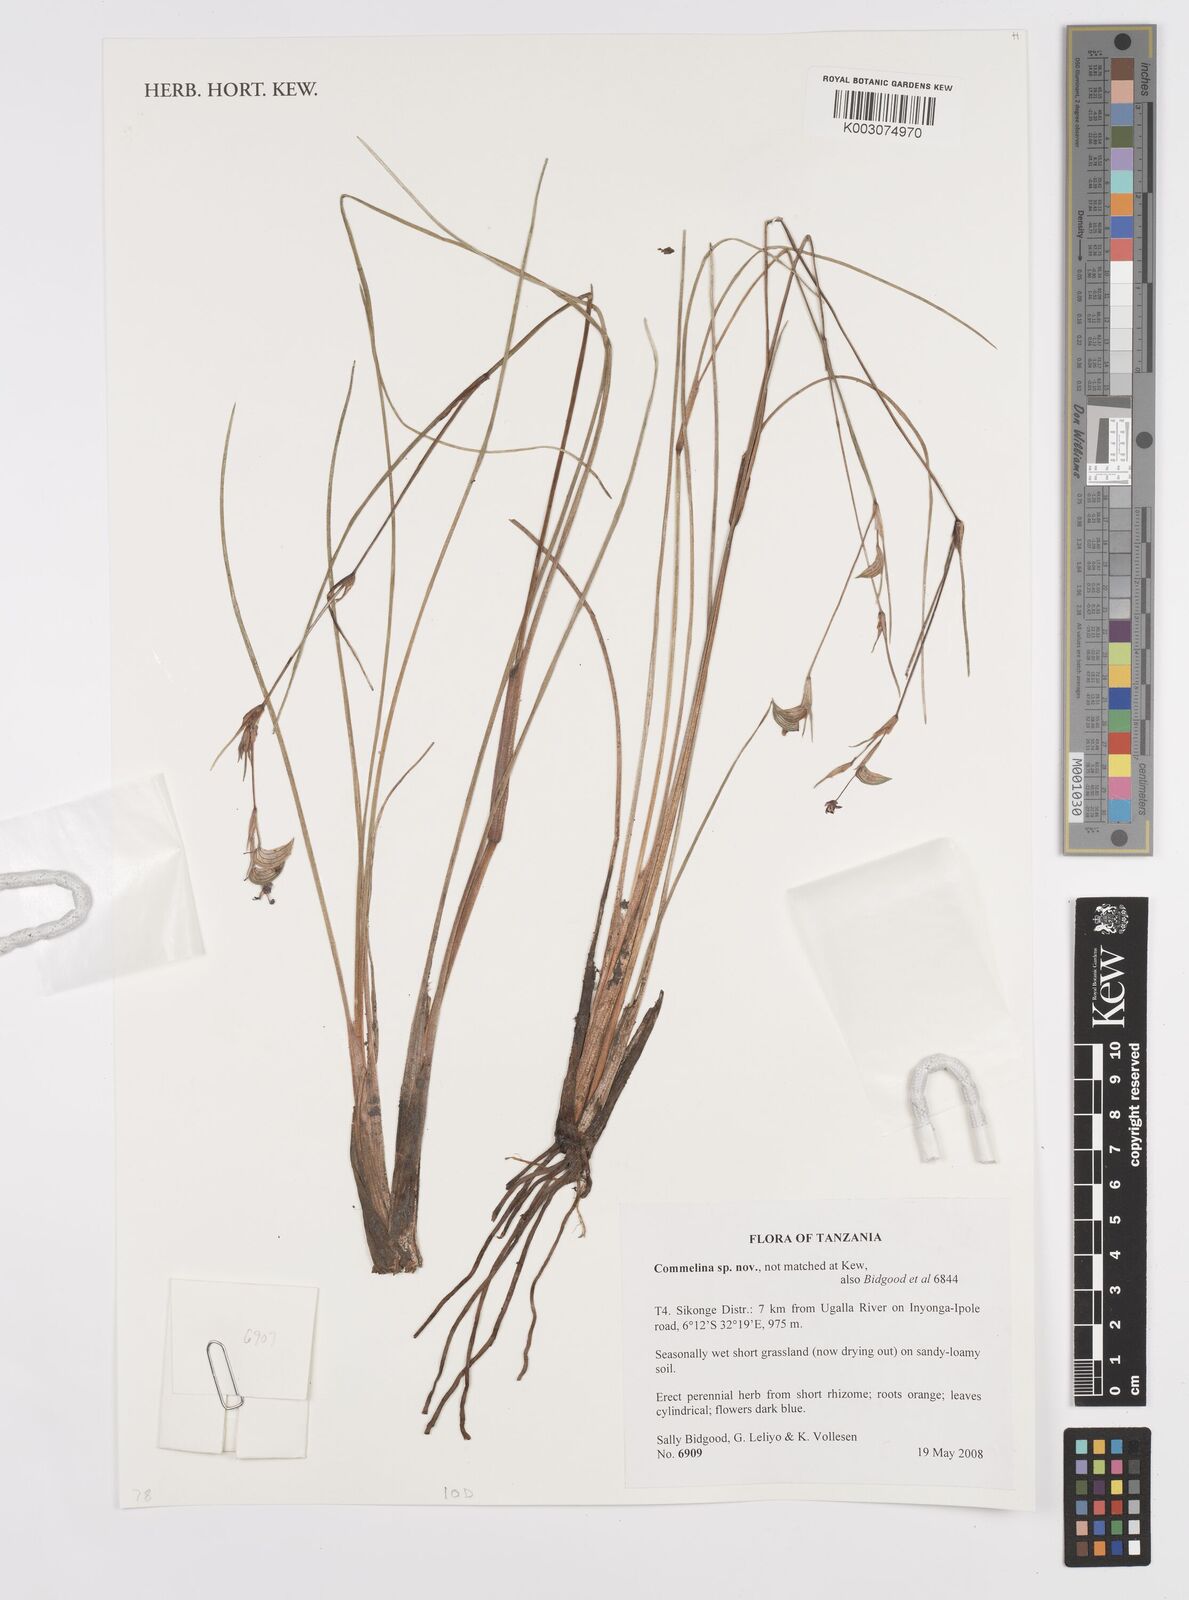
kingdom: Plantae
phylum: Tracheophyta
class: Liliopsida
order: Commelinales
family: Commelinaceae
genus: Commelina
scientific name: Commelina
